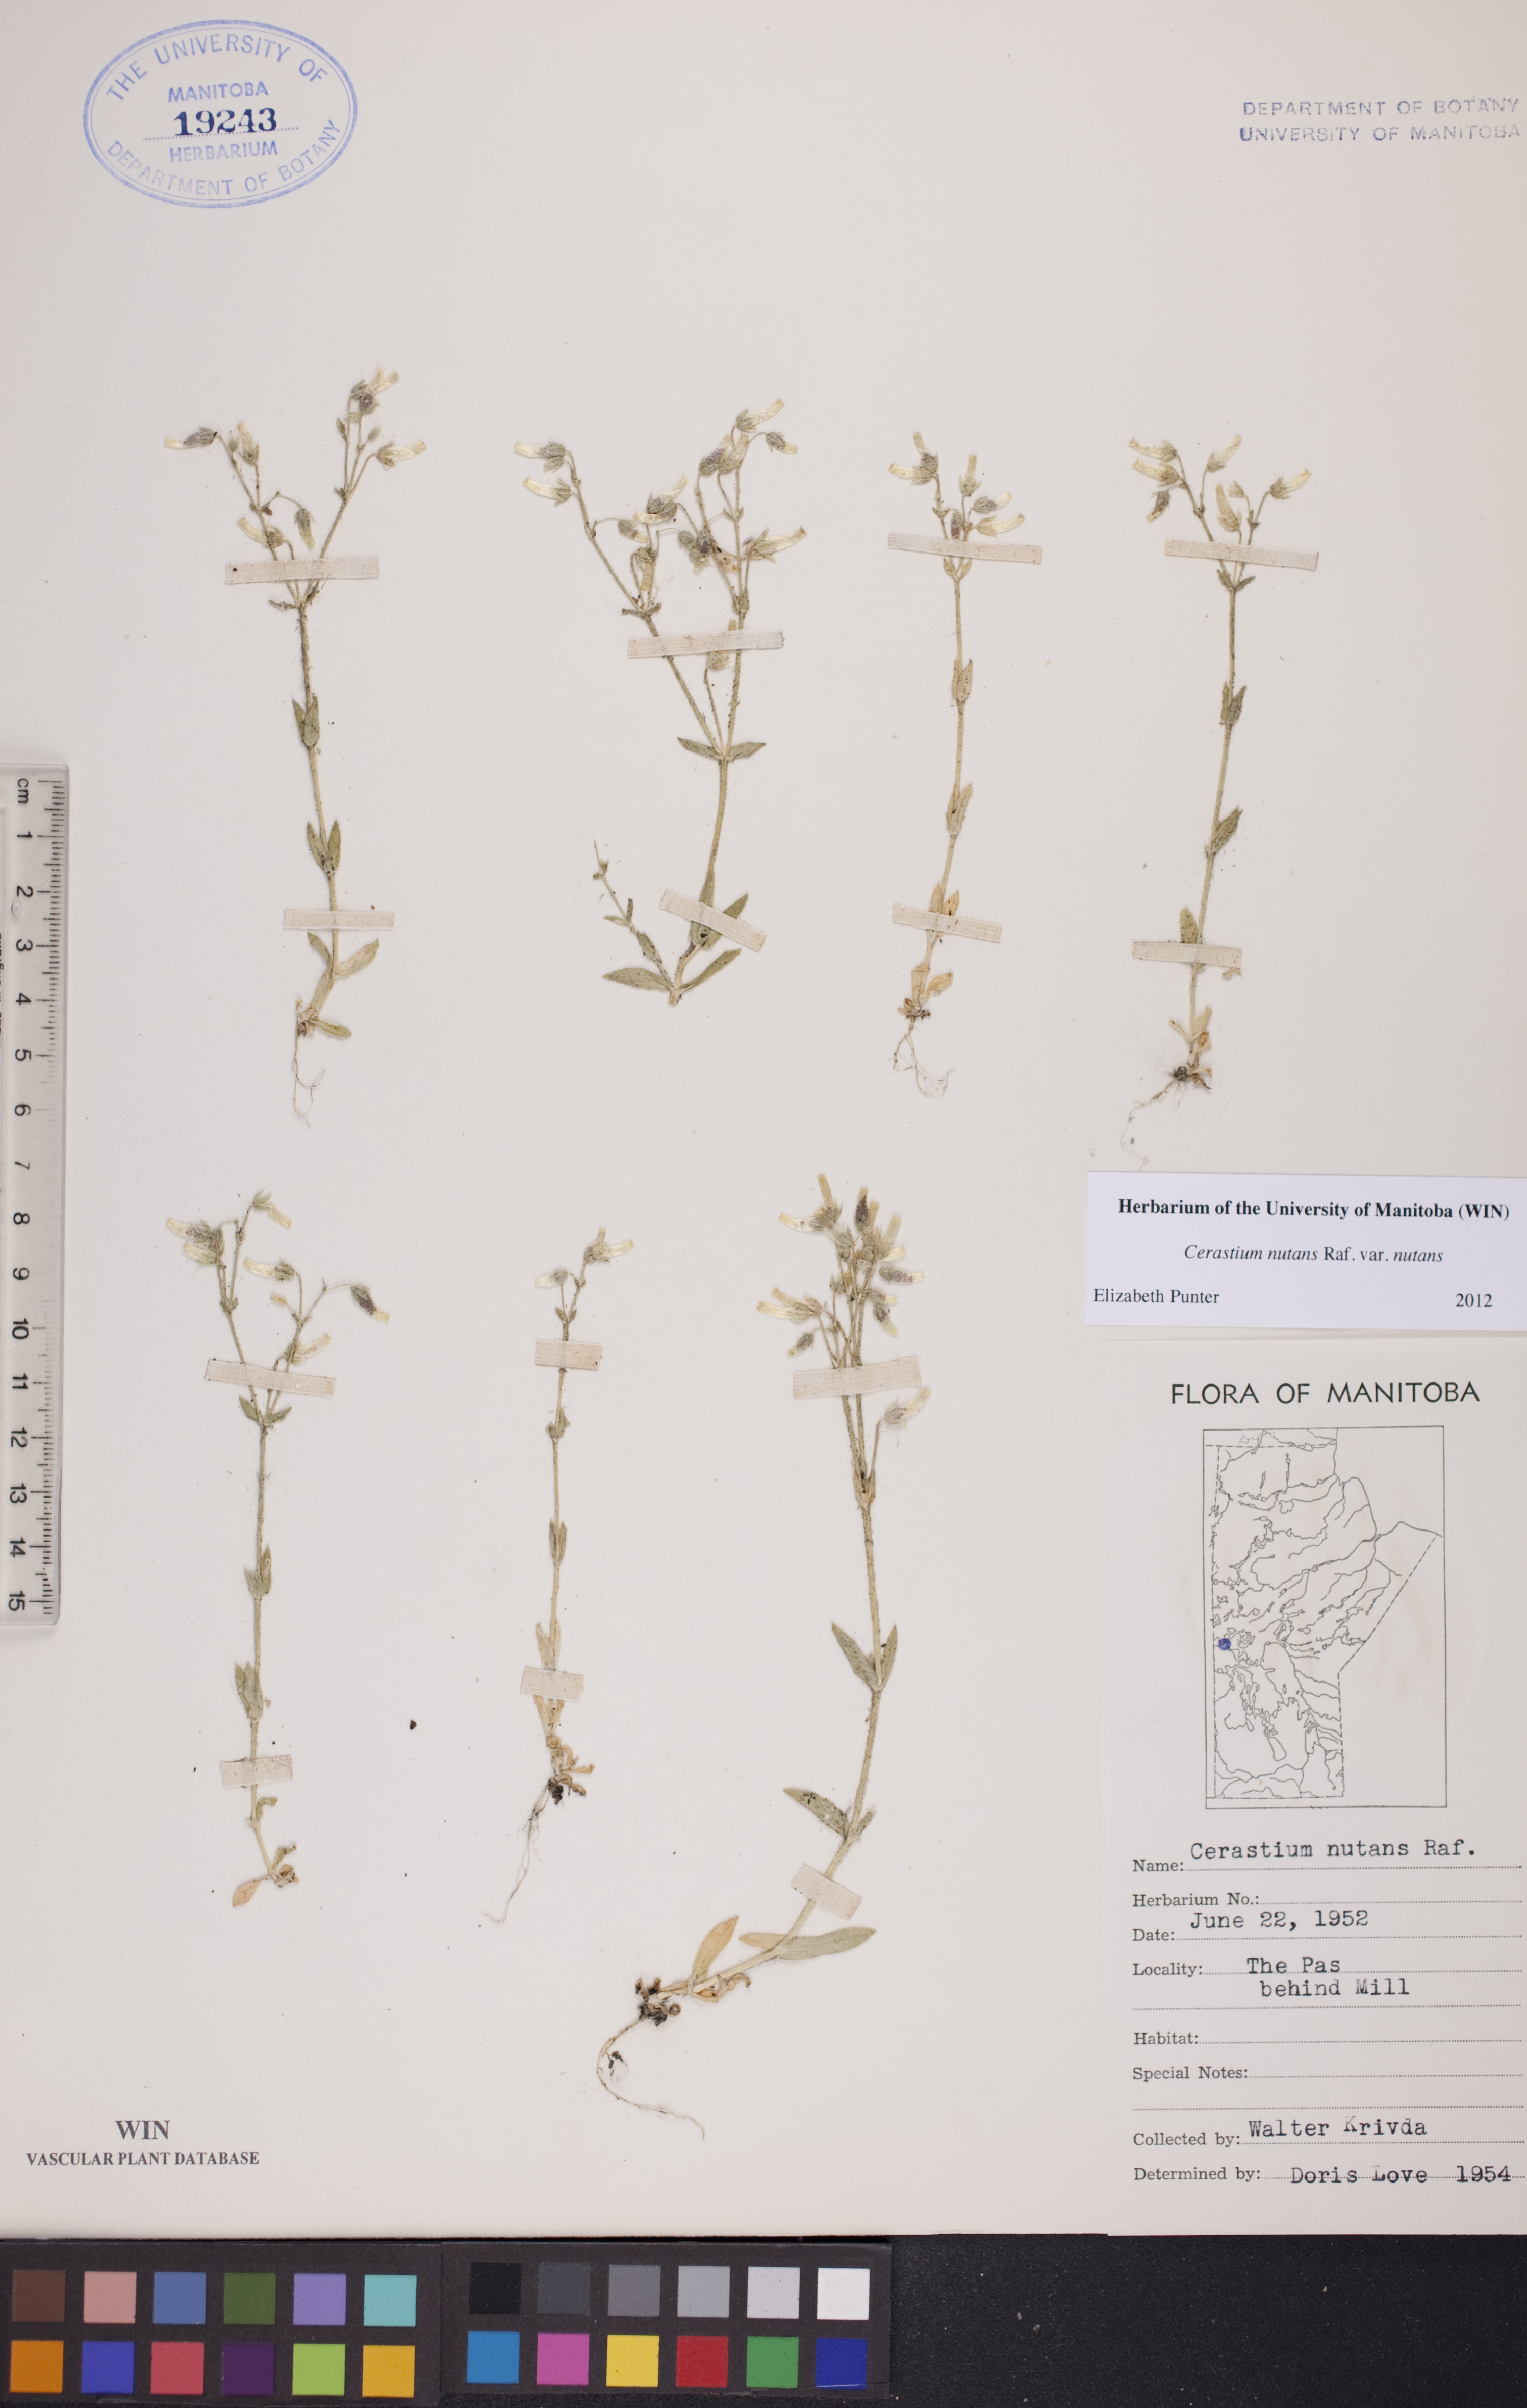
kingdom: Plantae
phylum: Tracheophyta
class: Magnoliopsida
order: Caryophyllales
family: Caryophyllaceae
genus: Cerastium
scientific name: Cerastium nutans
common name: Long-stalked chickweed
